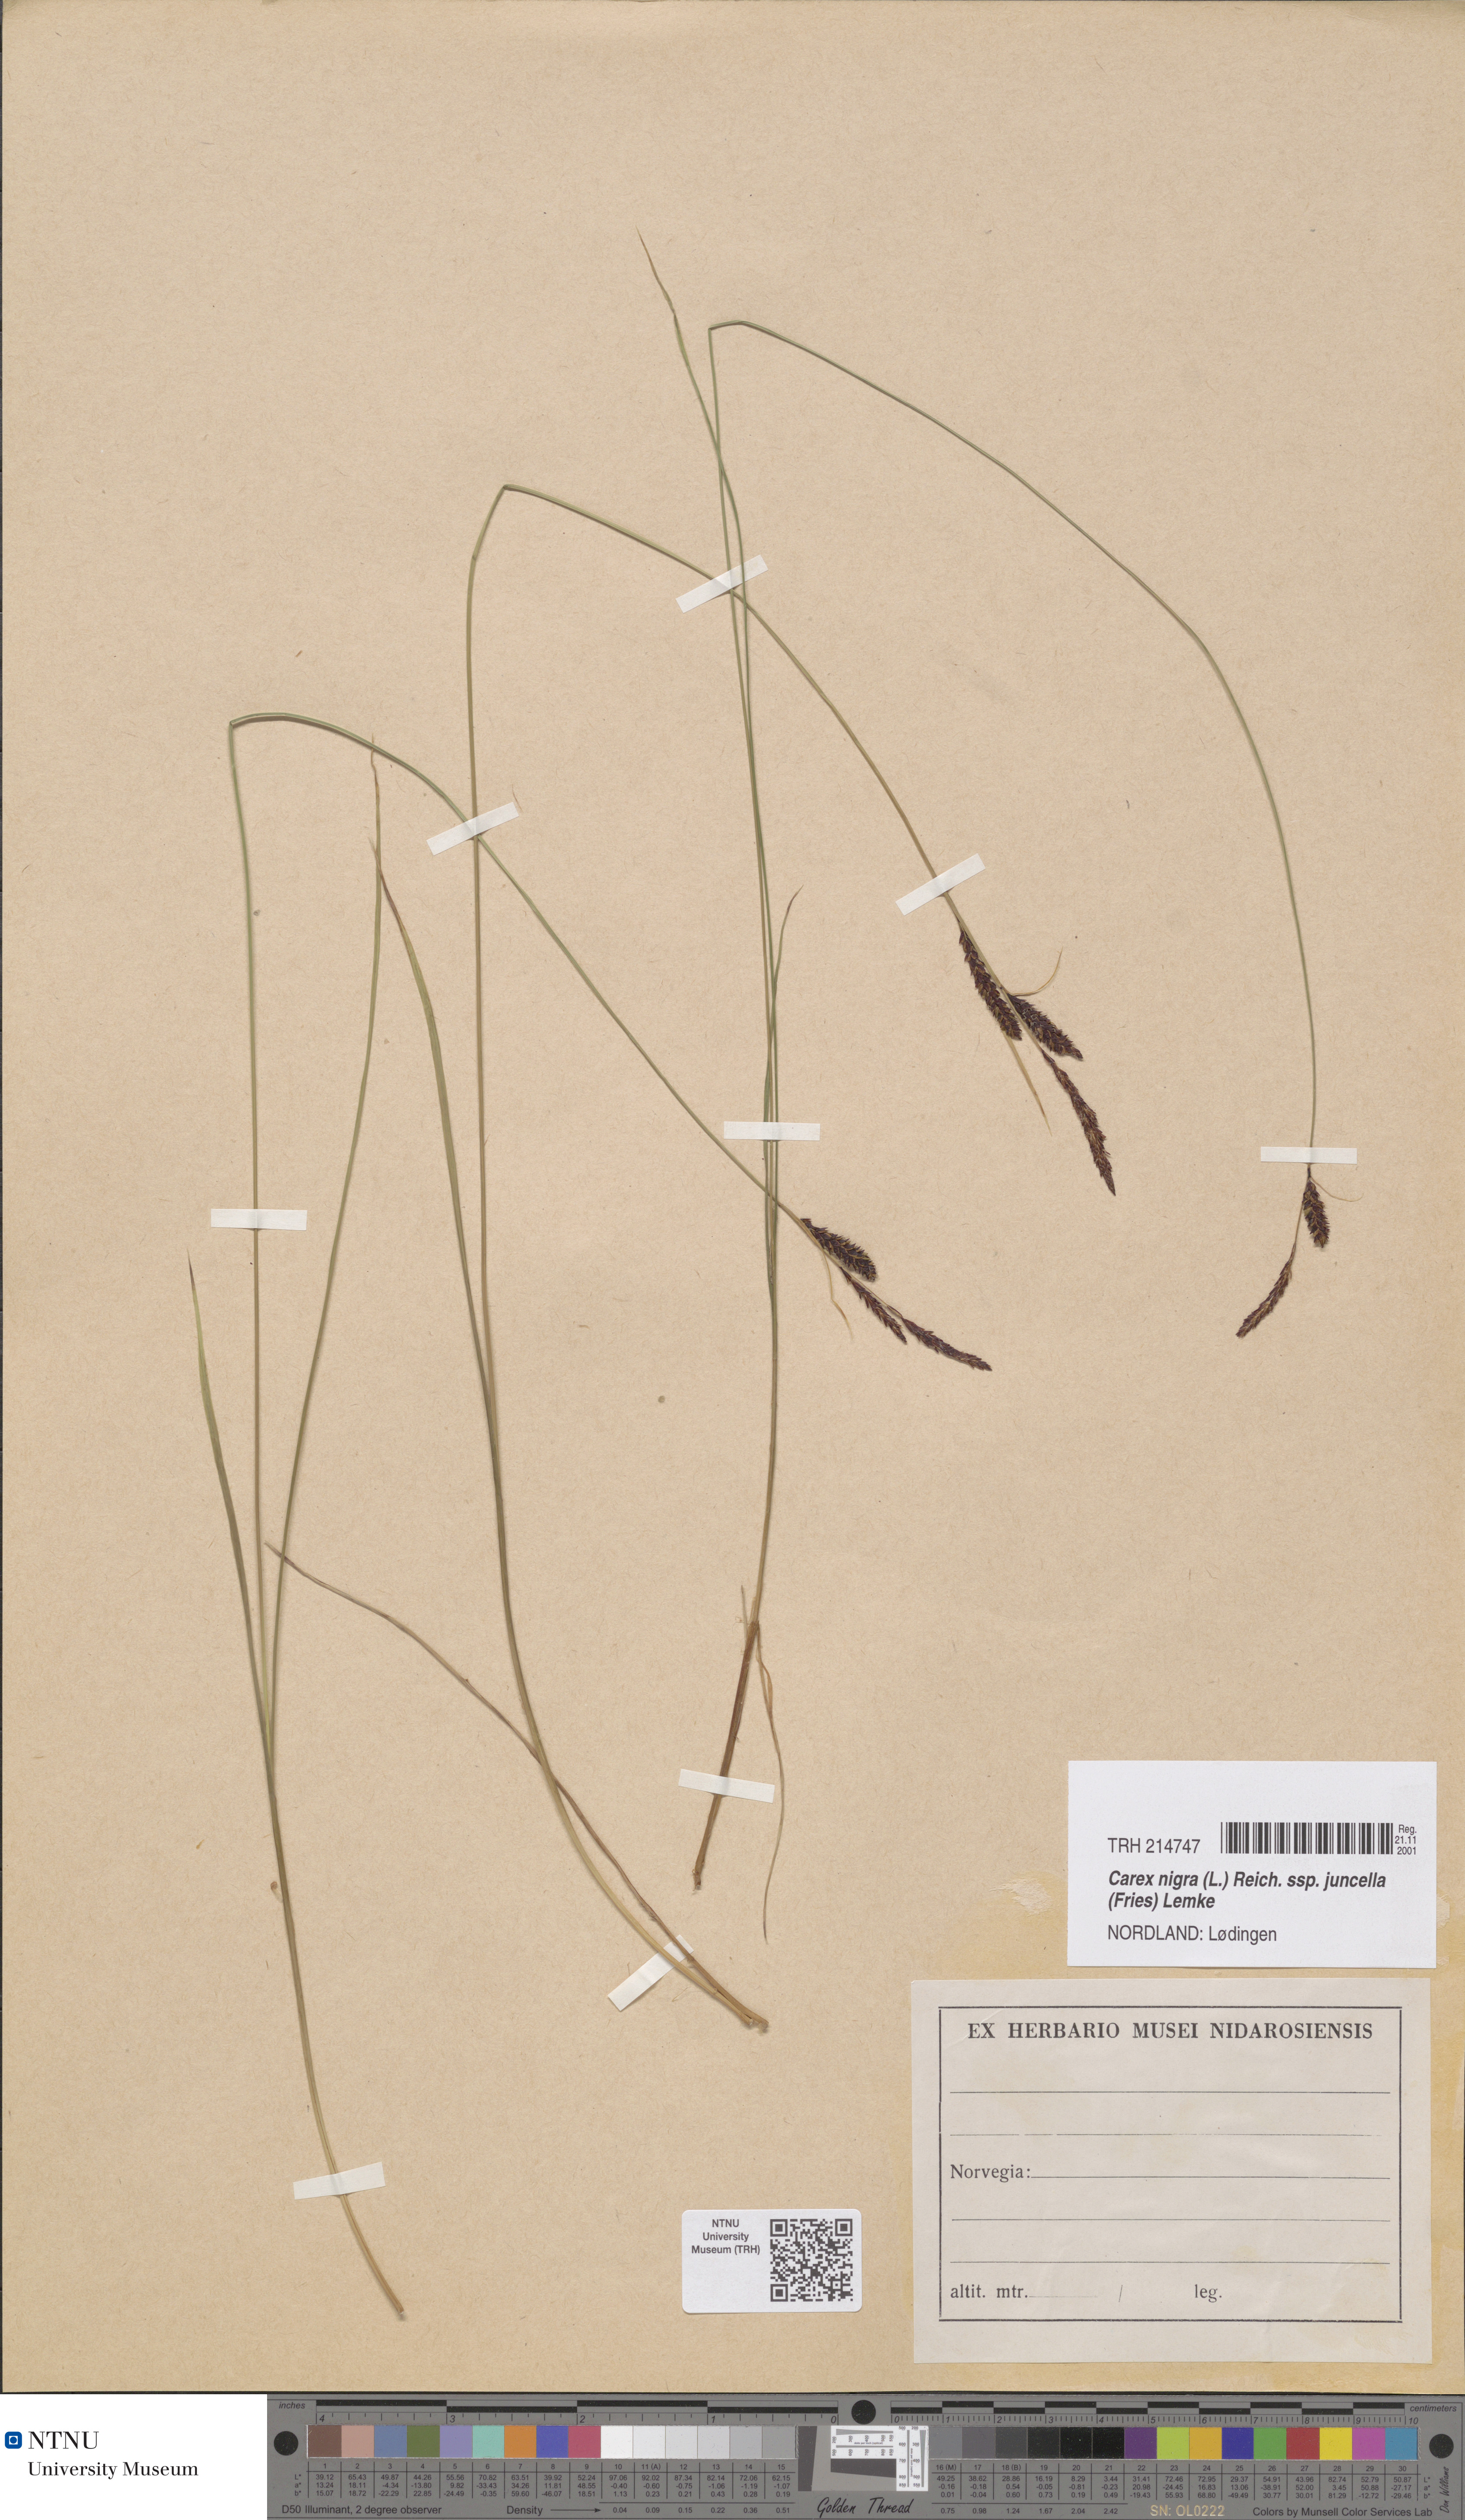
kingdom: Plantae
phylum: Tracheophyta
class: Liliopsida
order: Poales
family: Cyperaceae
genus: Carex
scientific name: Carex nigra
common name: Common sedge
